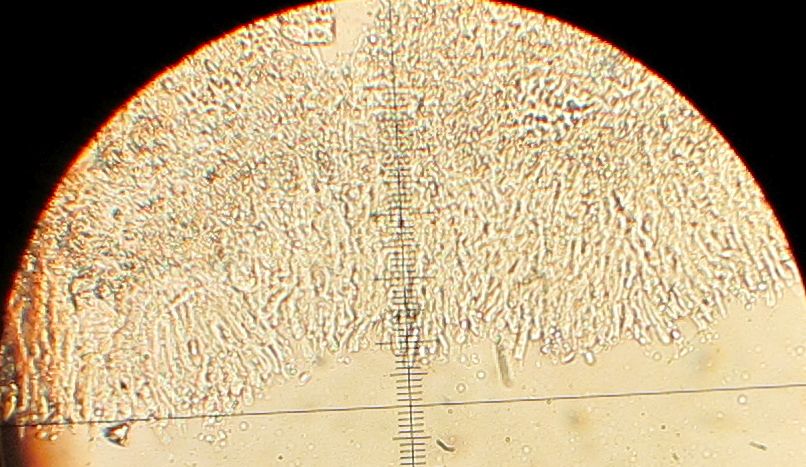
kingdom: Fungi
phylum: Basidiomycota
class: Agaricomycetes
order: Corticiales
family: Corticiaceae
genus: Lyomyces
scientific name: Lyomyces crustosus
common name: vortet hyldehinde
